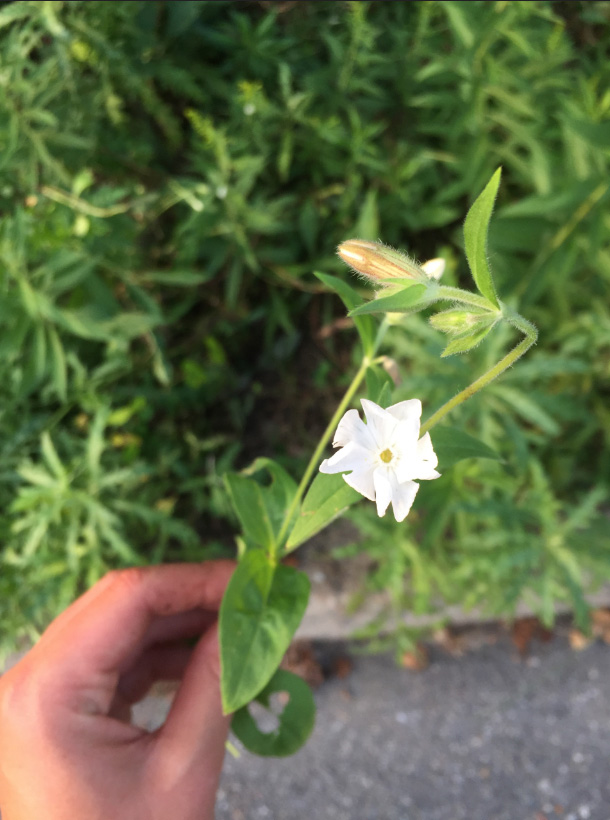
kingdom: Plantae
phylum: Tracheophyta
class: Magnoliopsida
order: Caryophyllales
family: Caryophyllaceae
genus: Silene
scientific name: Silene latifolia
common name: White Campion
